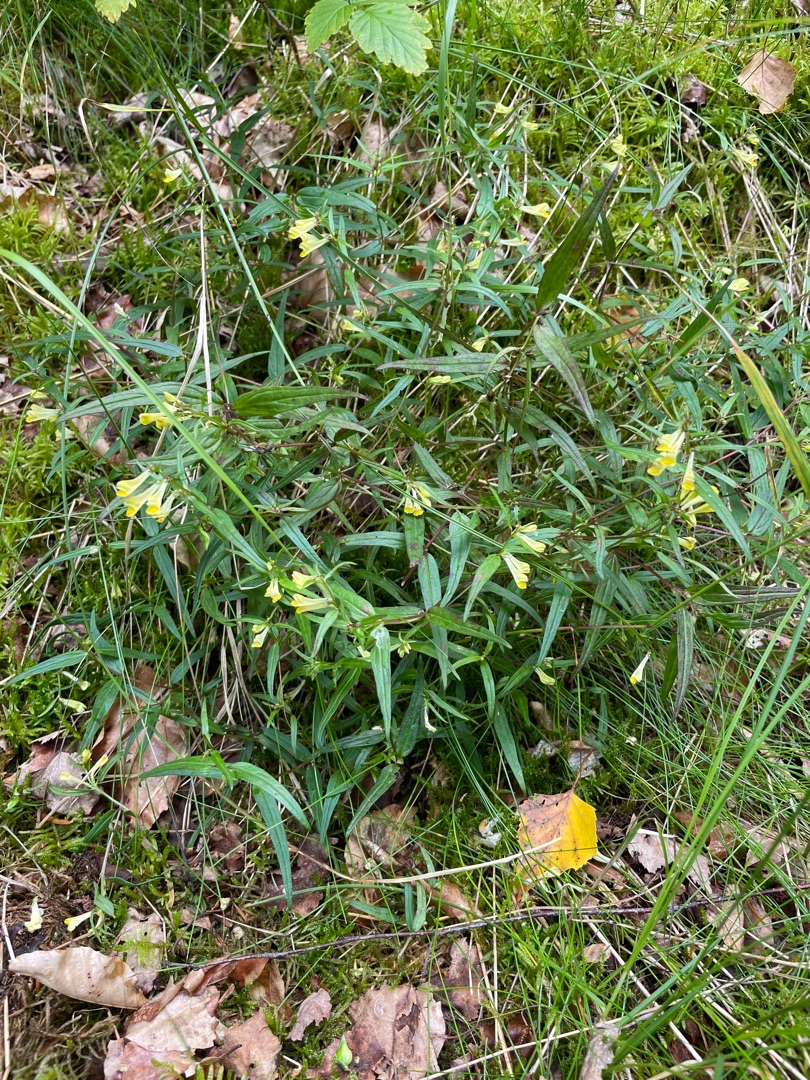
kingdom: Plantae
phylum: Tracheophyta
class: Magnoliopsida
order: Lamiales
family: Orobanchaceae
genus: Melampyrum
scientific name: Melampyrum pratense
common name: Almindelig kohvede
